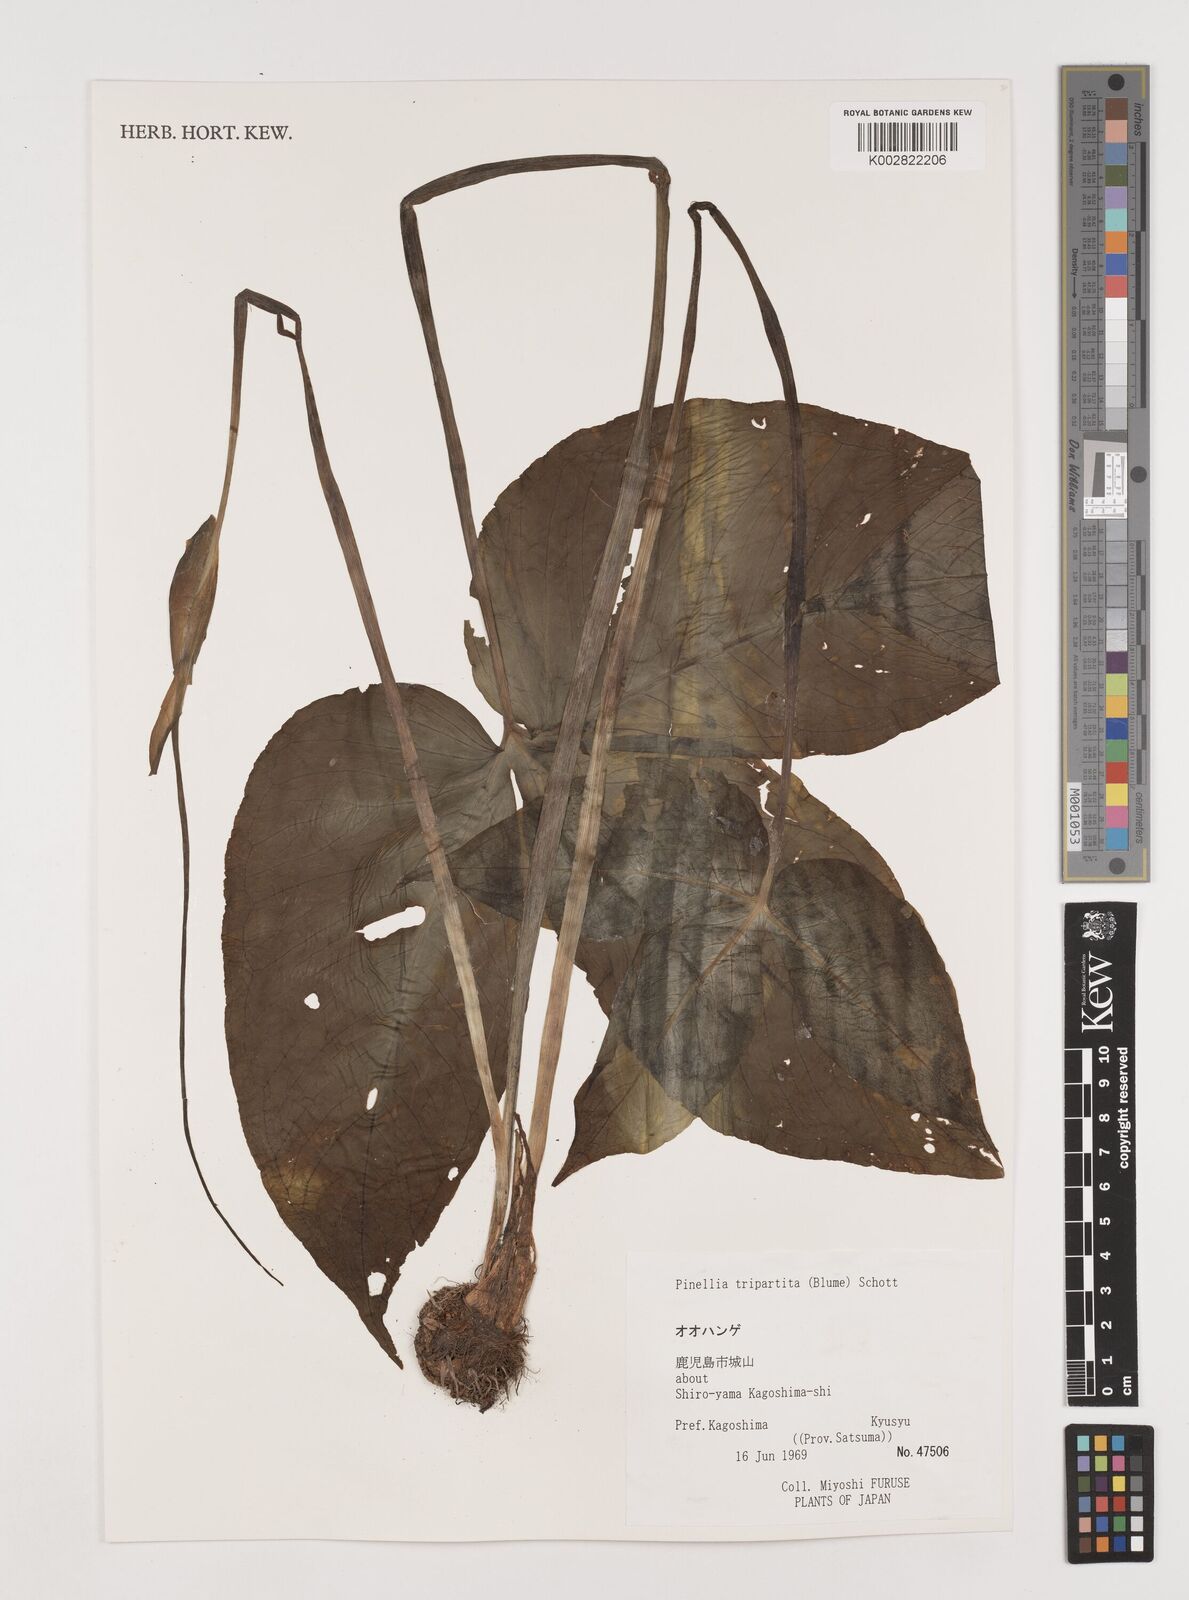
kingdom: Plantae
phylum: Tracheophyta
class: Liliopsida
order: Alismatales
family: Araceae
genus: Pinellia
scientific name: Pinellia tripartita
